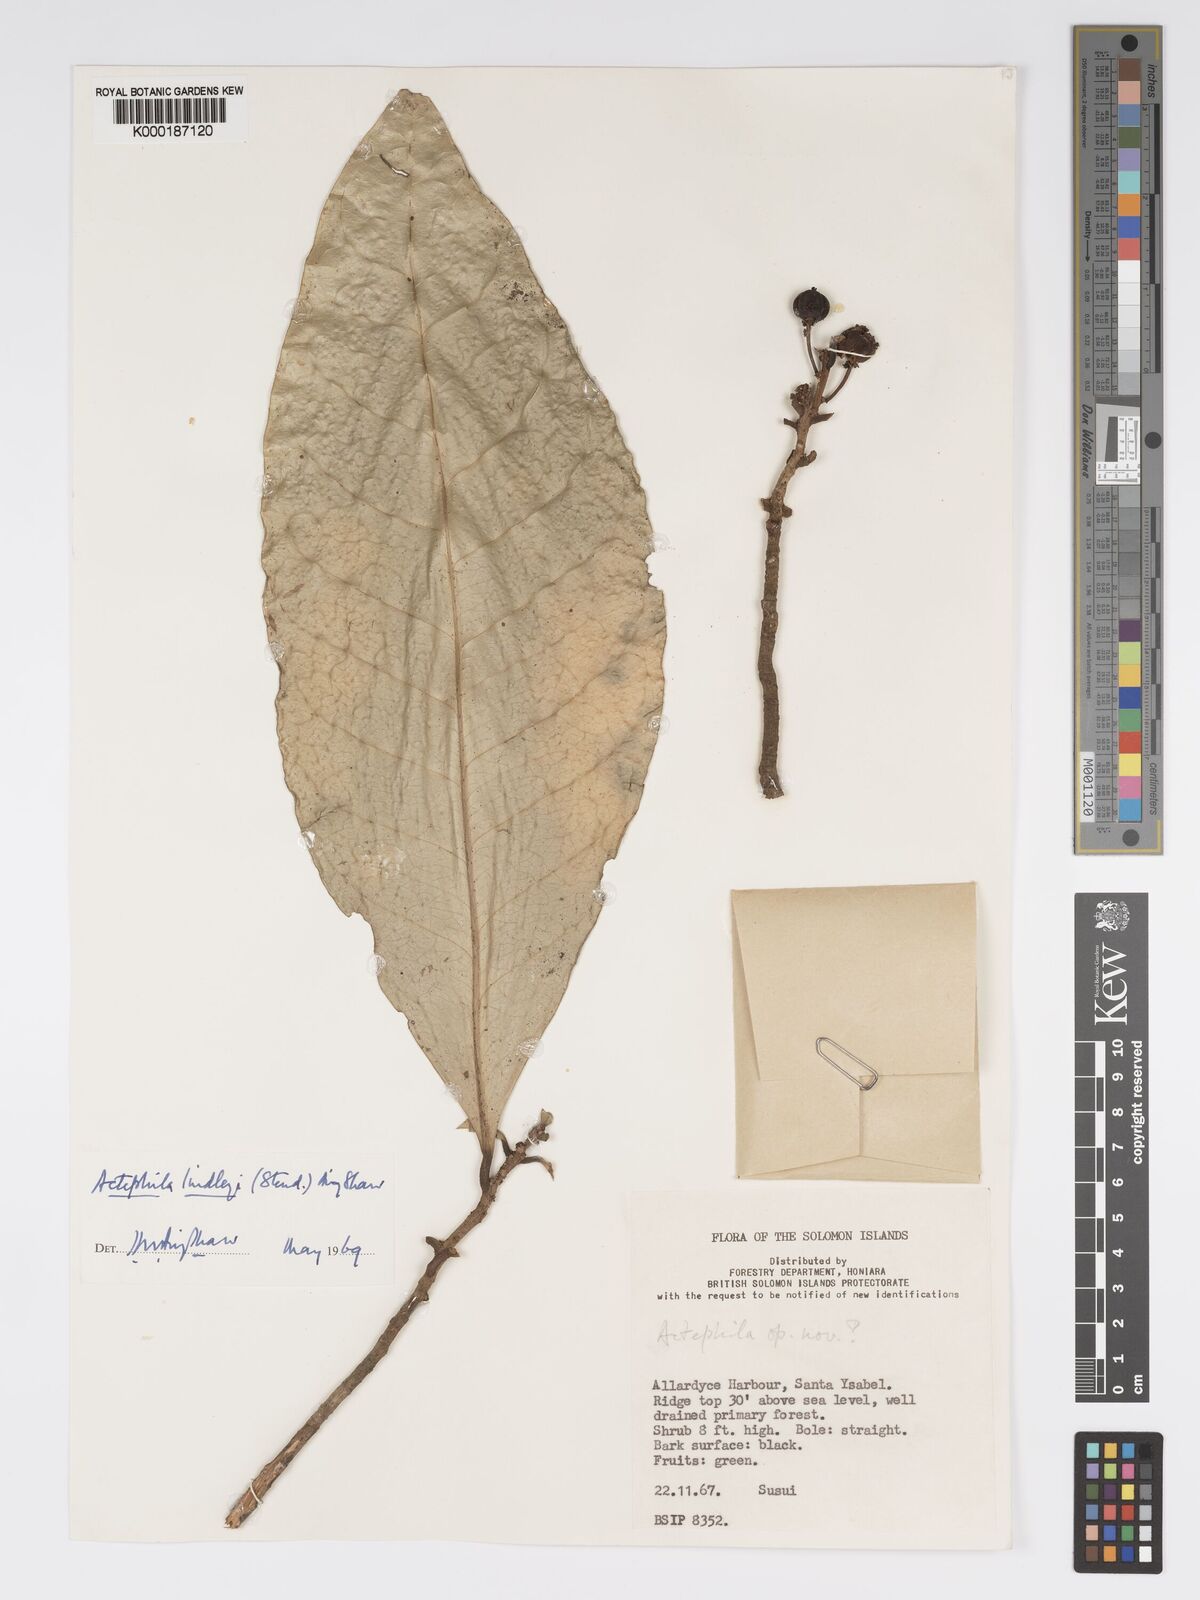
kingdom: Plantae
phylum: Tracheophyta
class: Magnoliopsida
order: Malpighiales
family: Phyllanthaceae
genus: Actephila
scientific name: Actephila lindleyi
